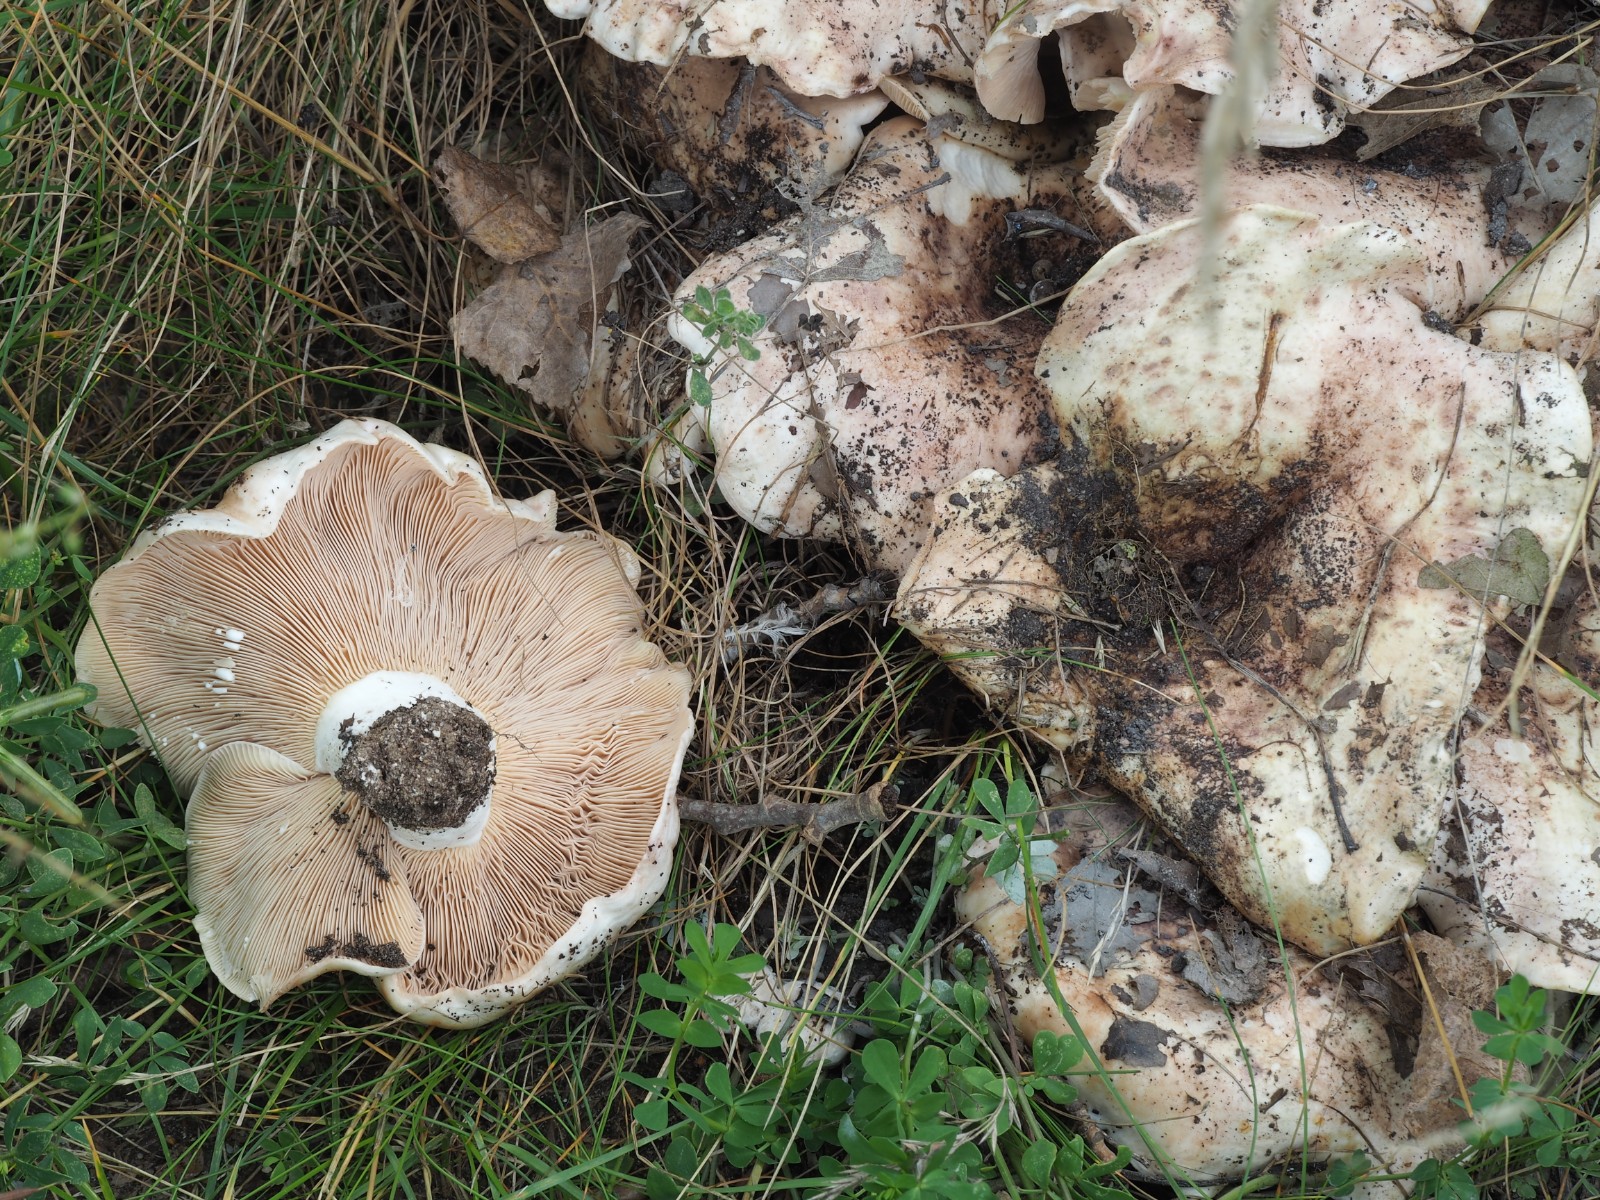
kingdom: Fungi
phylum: Basidiomycota
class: Agaricomycetes
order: Russulales
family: Russulaceae
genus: Lactarius
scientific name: Lactarius controversus
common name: rosabladet mælkehat
